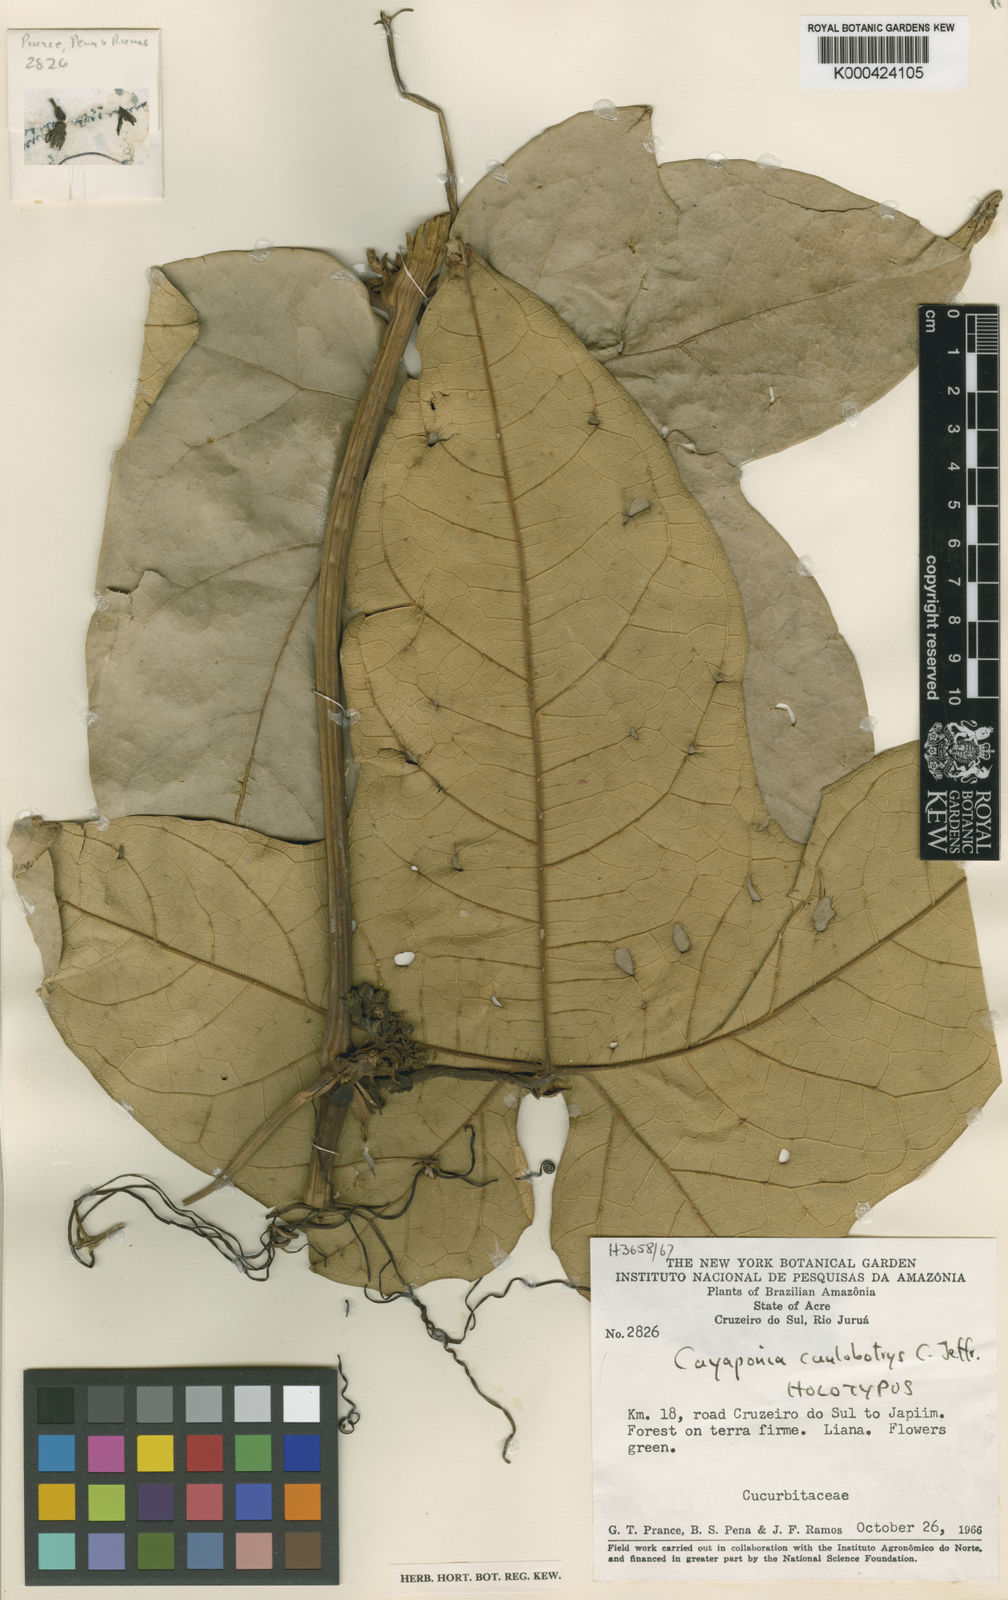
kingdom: Plantae
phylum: Tracheophyta
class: Magnoliopsida
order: Cucurbitales
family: Cucurbitaceae
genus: Cayaponia
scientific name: Cayaponia caulobotrys
